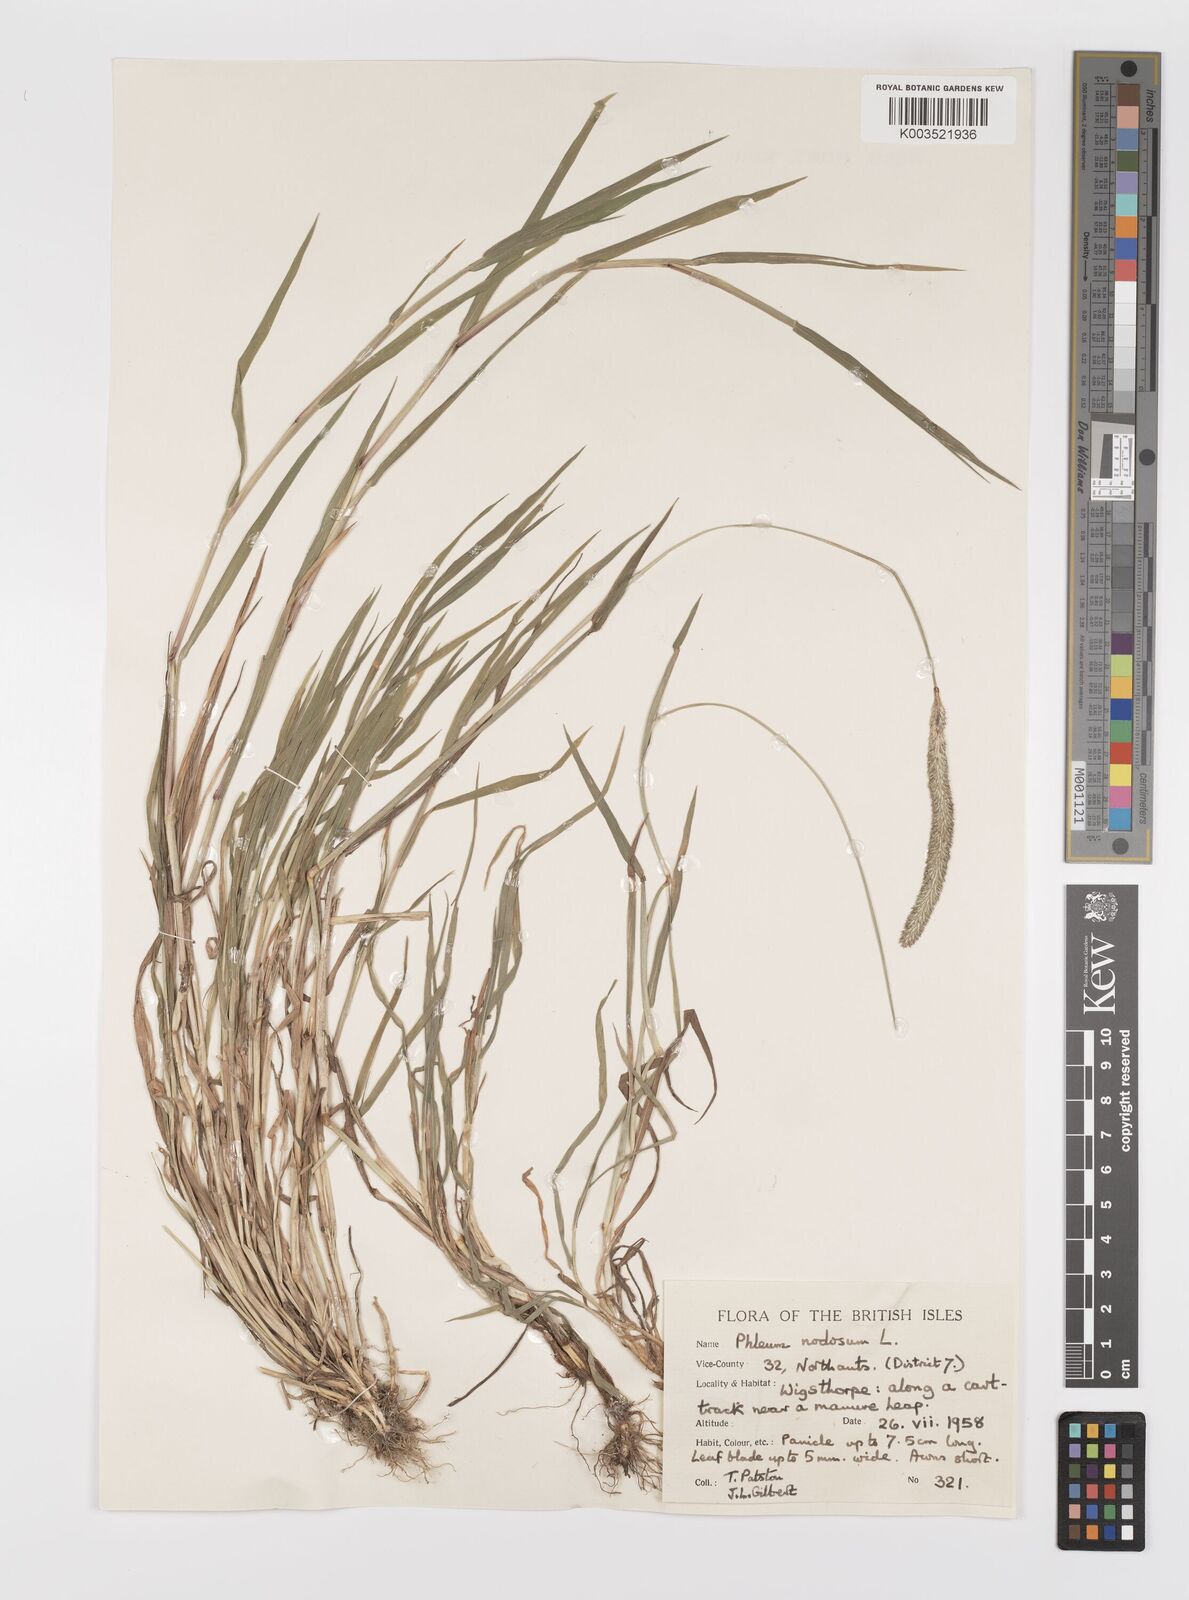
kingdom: Plantae
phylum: Tracheophyta
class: Liliopsida
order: Poales
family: Poaceae
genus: Phleum
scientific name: Phleum bertolonii
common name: Smaller cat's-tail
